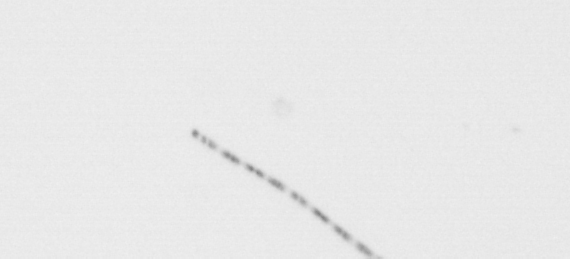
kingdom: Chromista
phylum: Ochrophyta
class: Bacillariophyceae
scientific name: Bacillariophyceae
